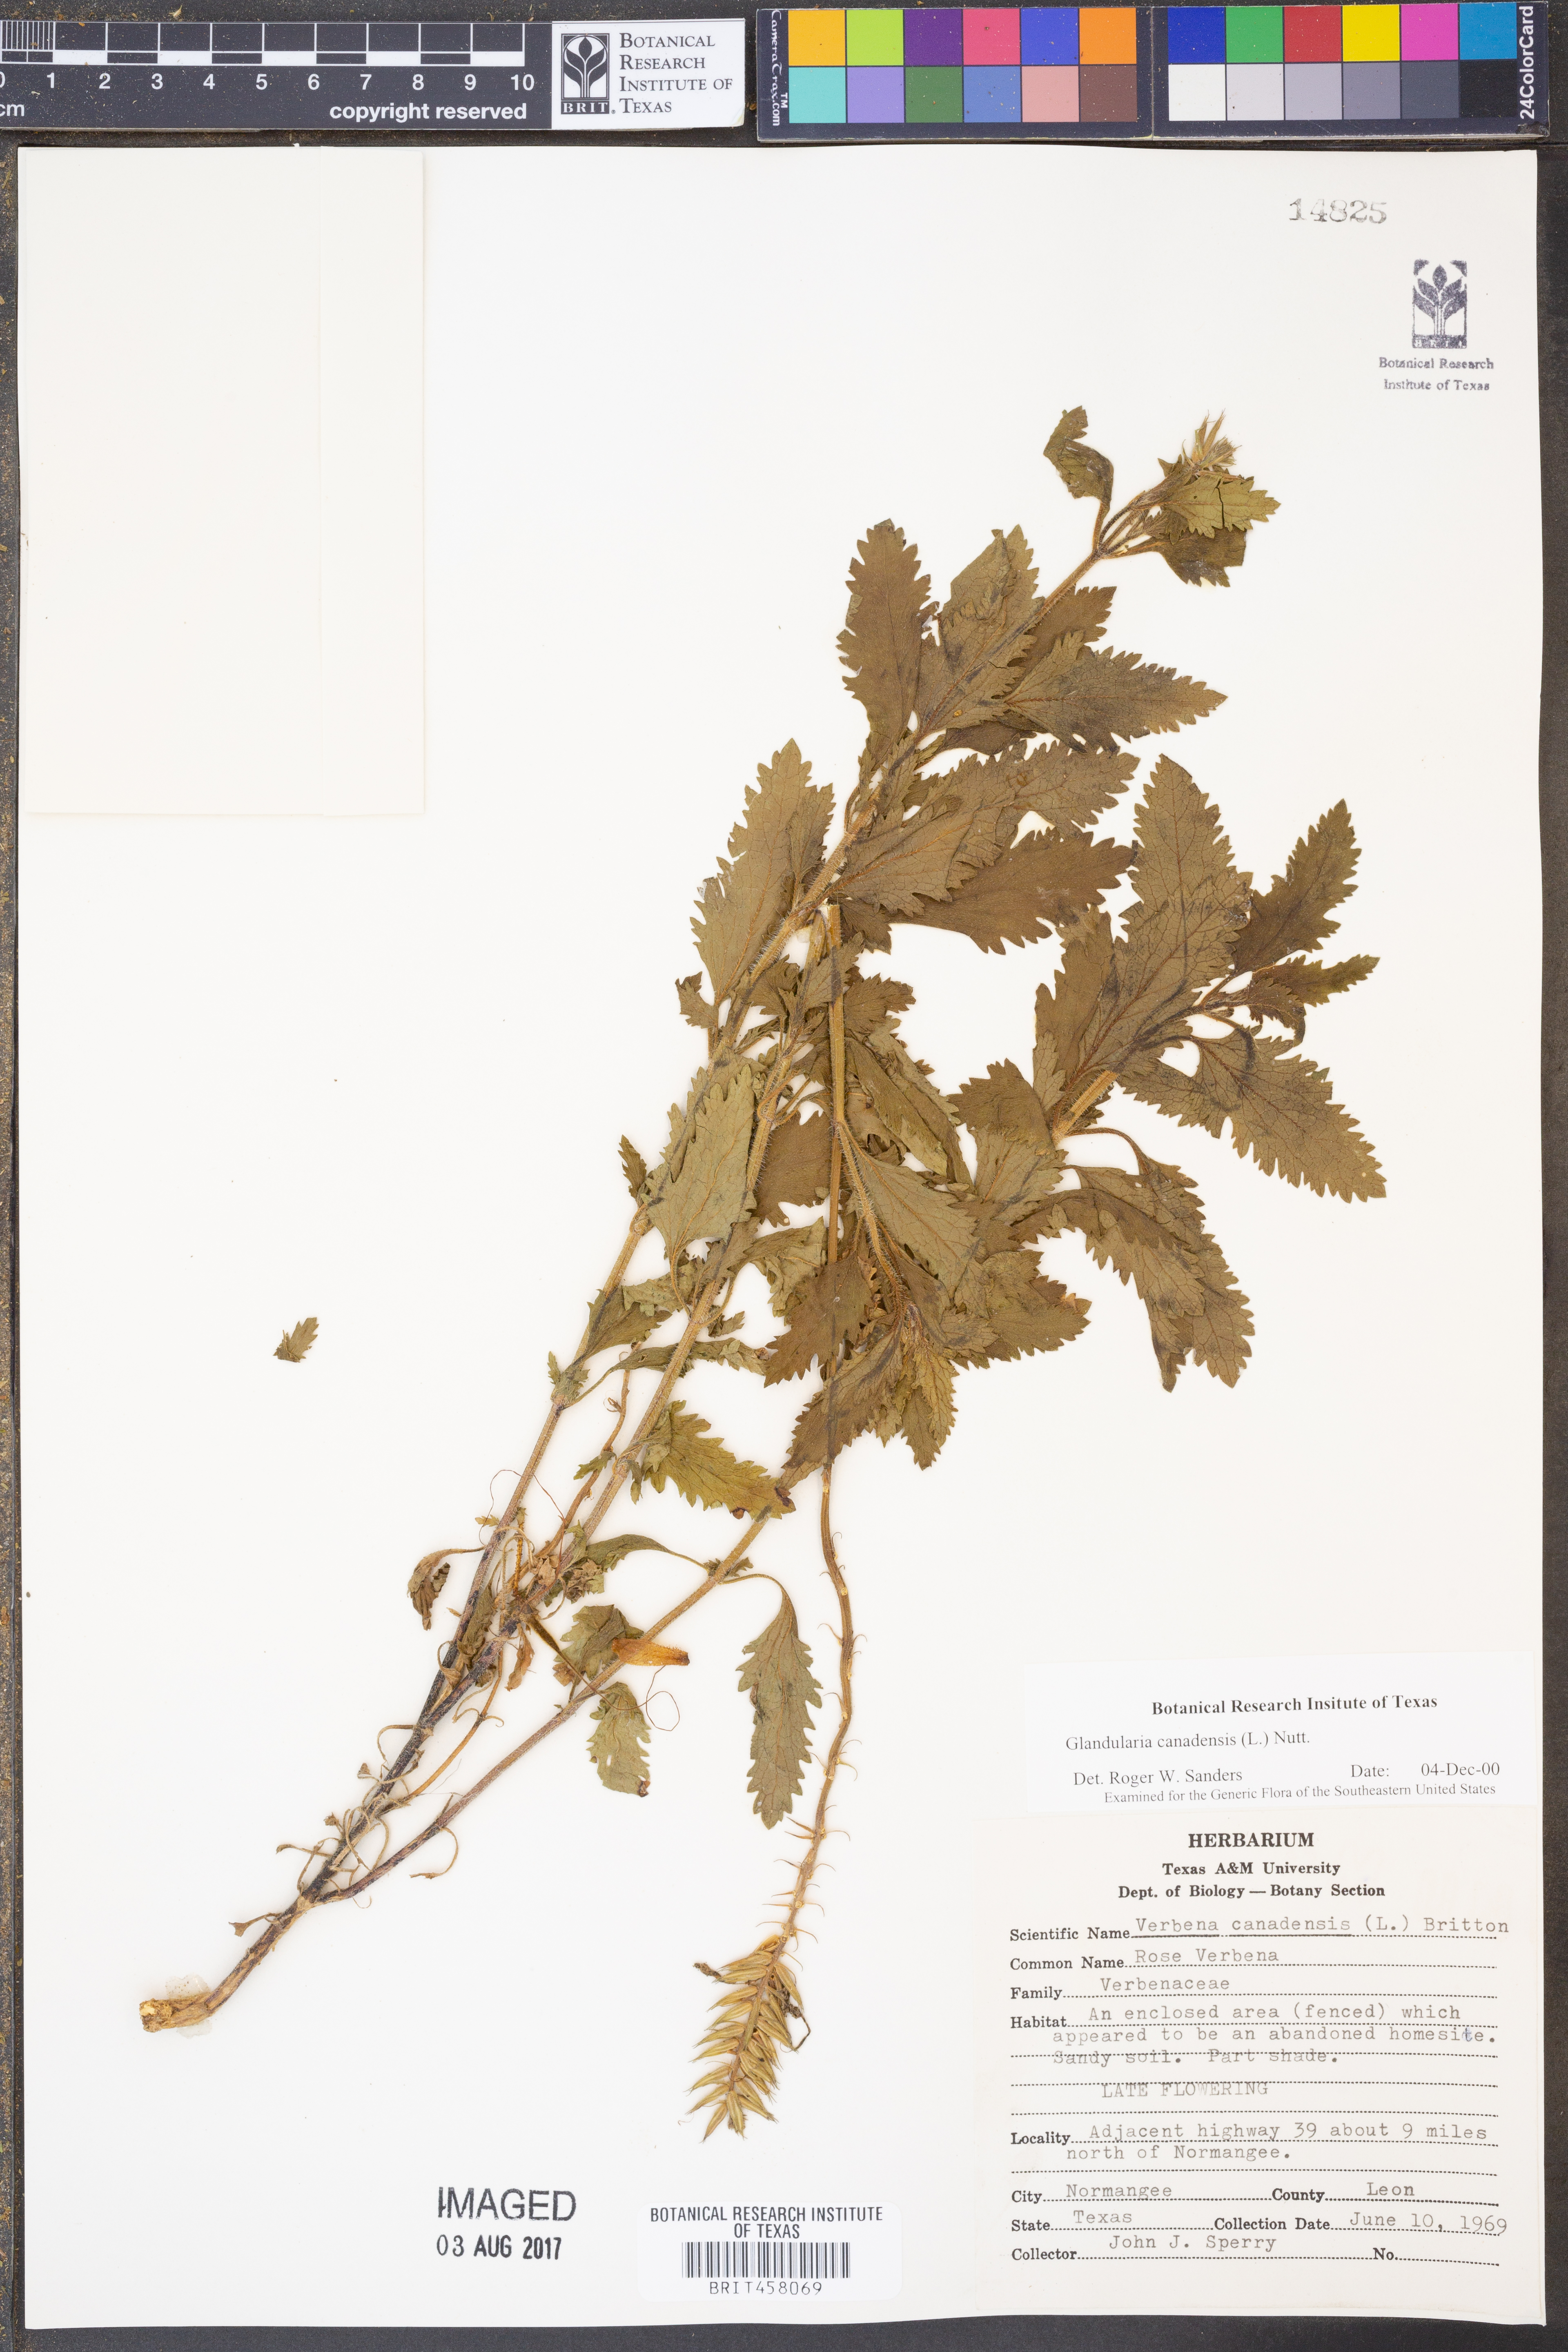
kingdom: Plantae
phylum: Tracheophyta
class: Magnoliopsida
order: Lamiales
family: Verbenaceae
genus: Verbena
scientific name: Verbena canadensis
